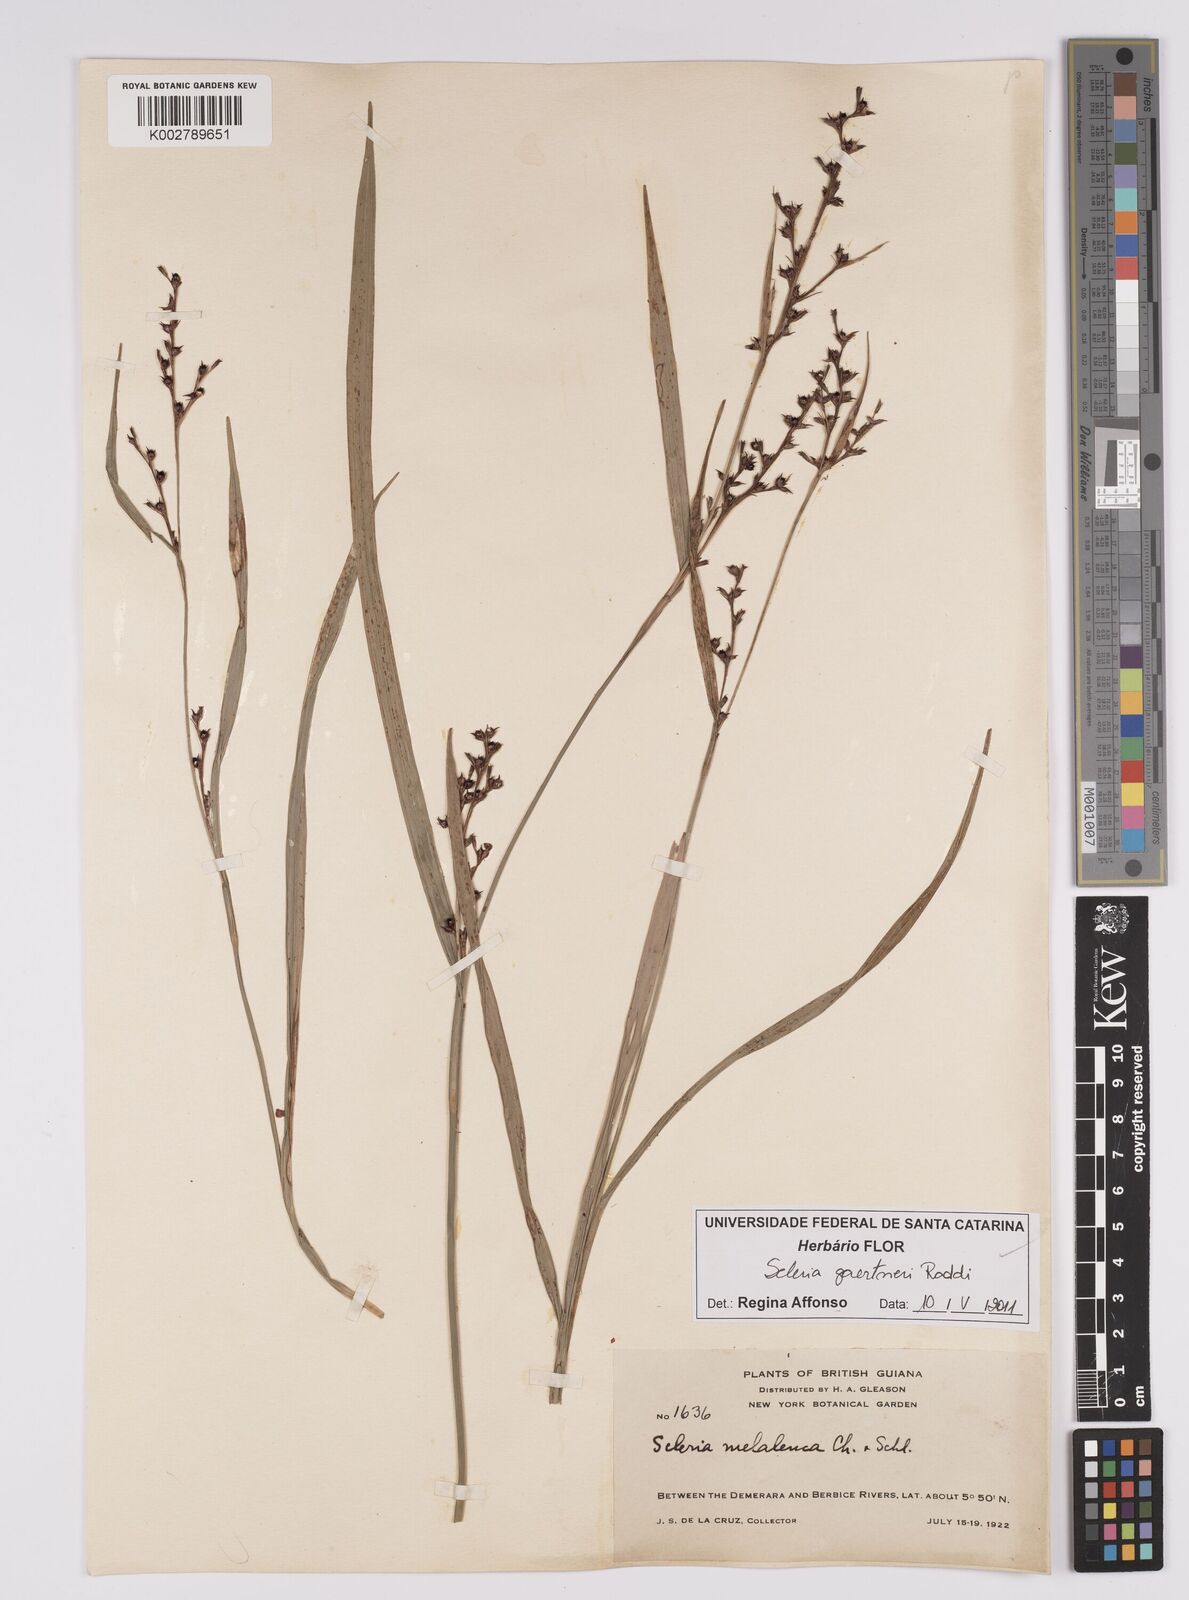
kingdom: Plantae
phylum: Tracheophyta
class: Liliopsida
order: Poales
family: Cyperaceae
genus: Scleria
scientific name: Scleria gaertneri
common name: Cortadera blanca
